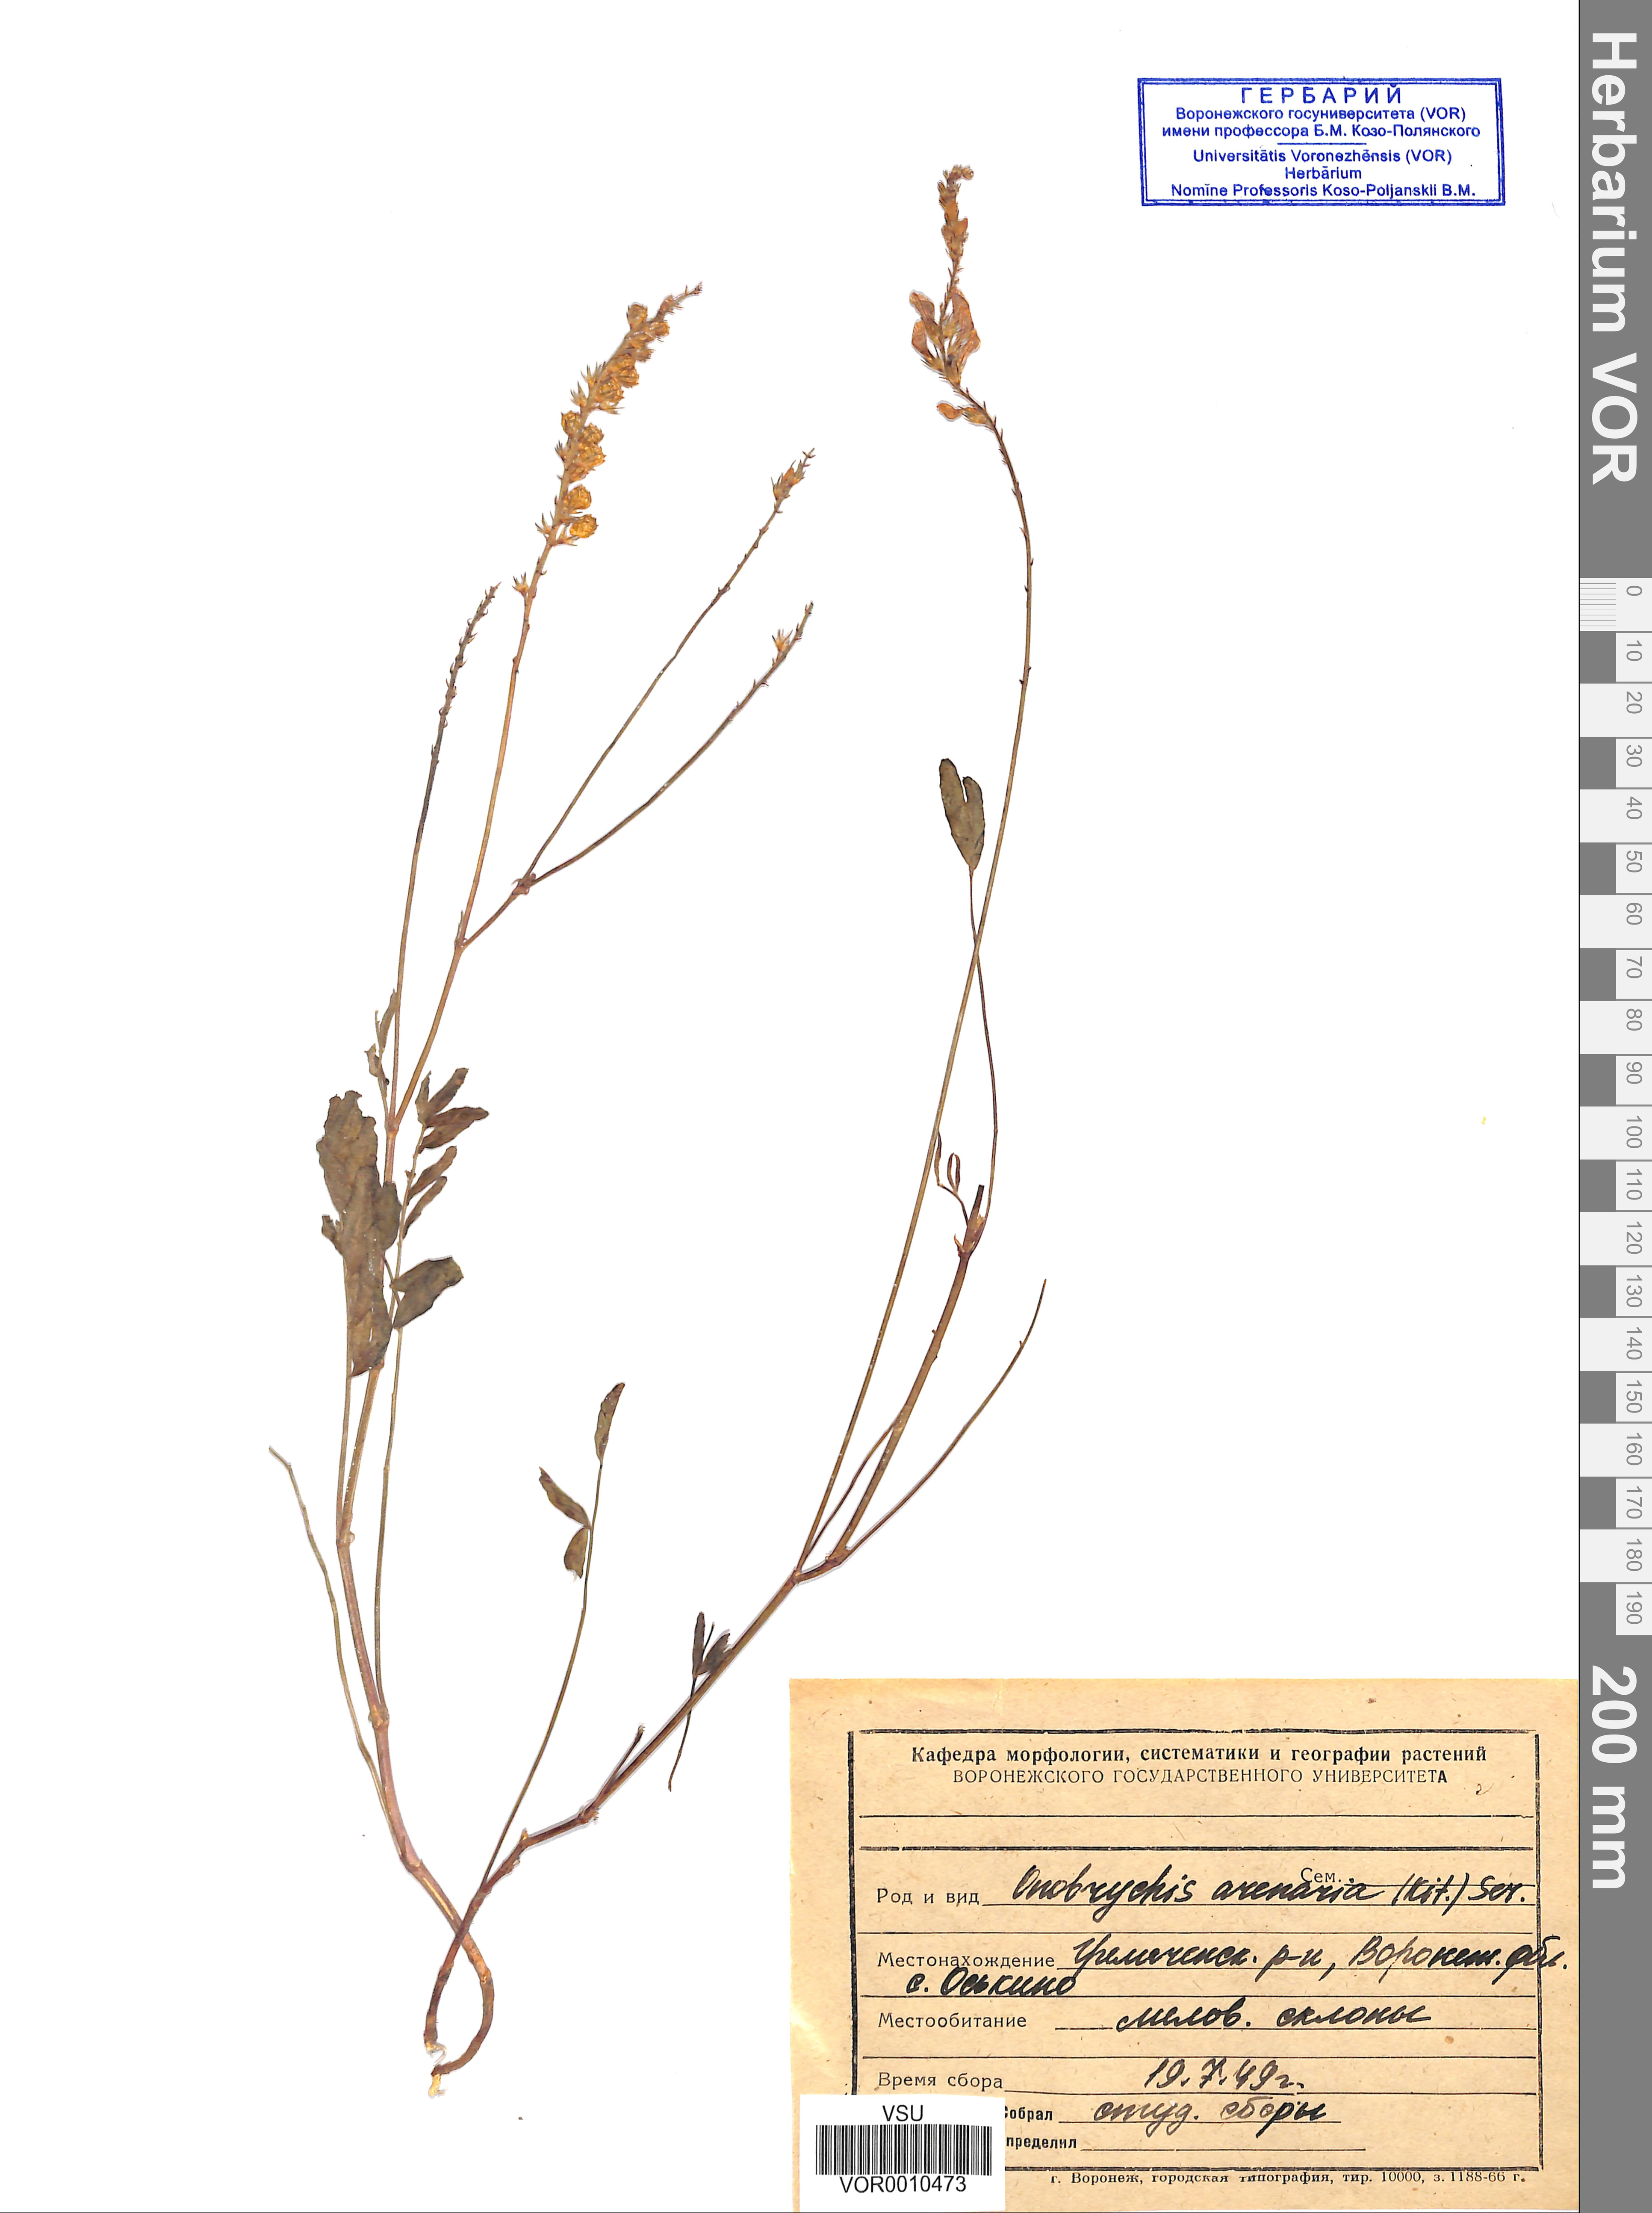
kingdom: Plantae
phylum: Tracheophyta
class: Magnoliopsida
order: Fabales
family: Fabaceae
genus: Onobrychis
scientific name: Onobrychis arenaria
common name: Sand esparcet
